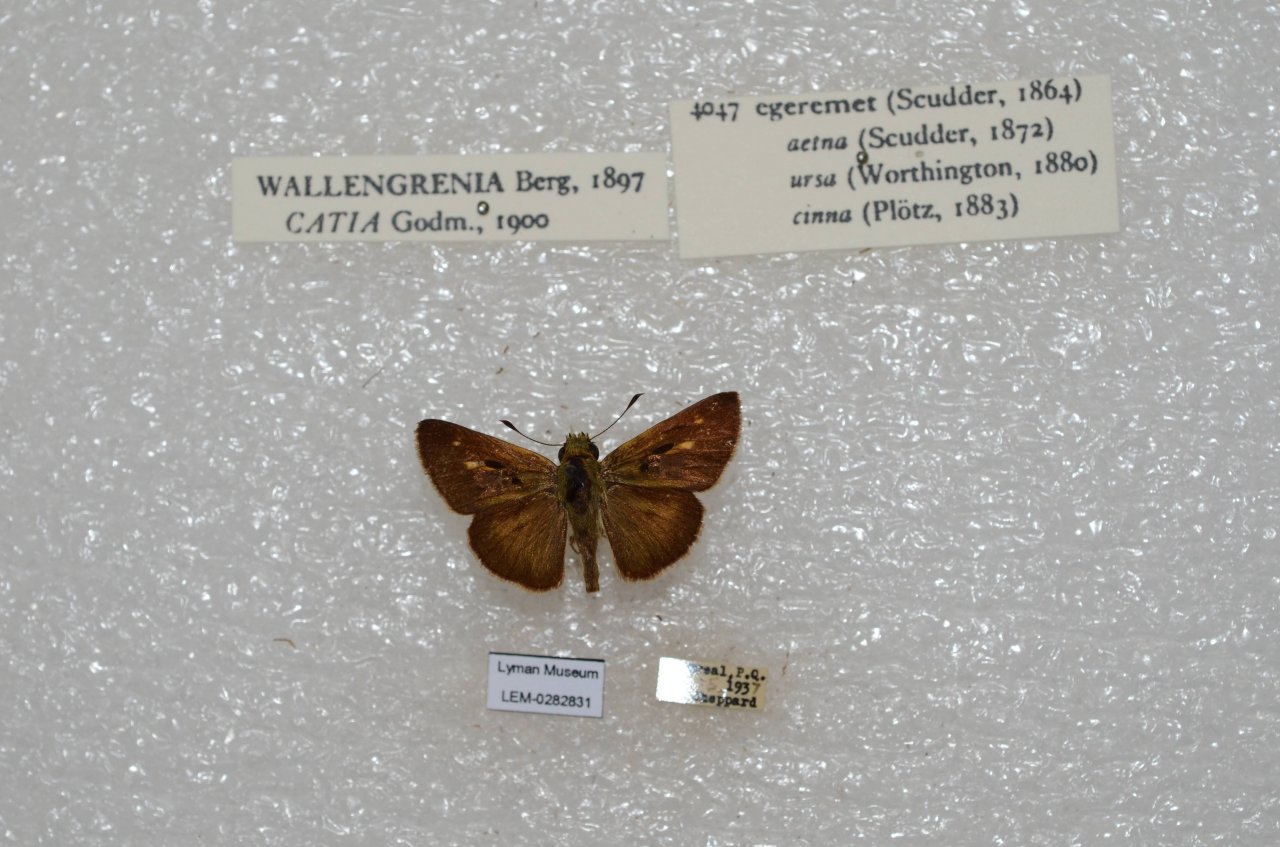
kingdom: Animalia
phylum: Arthropoda
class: Insecta
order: Lepidoptera
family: Hesperiidae
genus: Polites
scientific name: Polites egeremet
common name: Northern Broken-Dash
